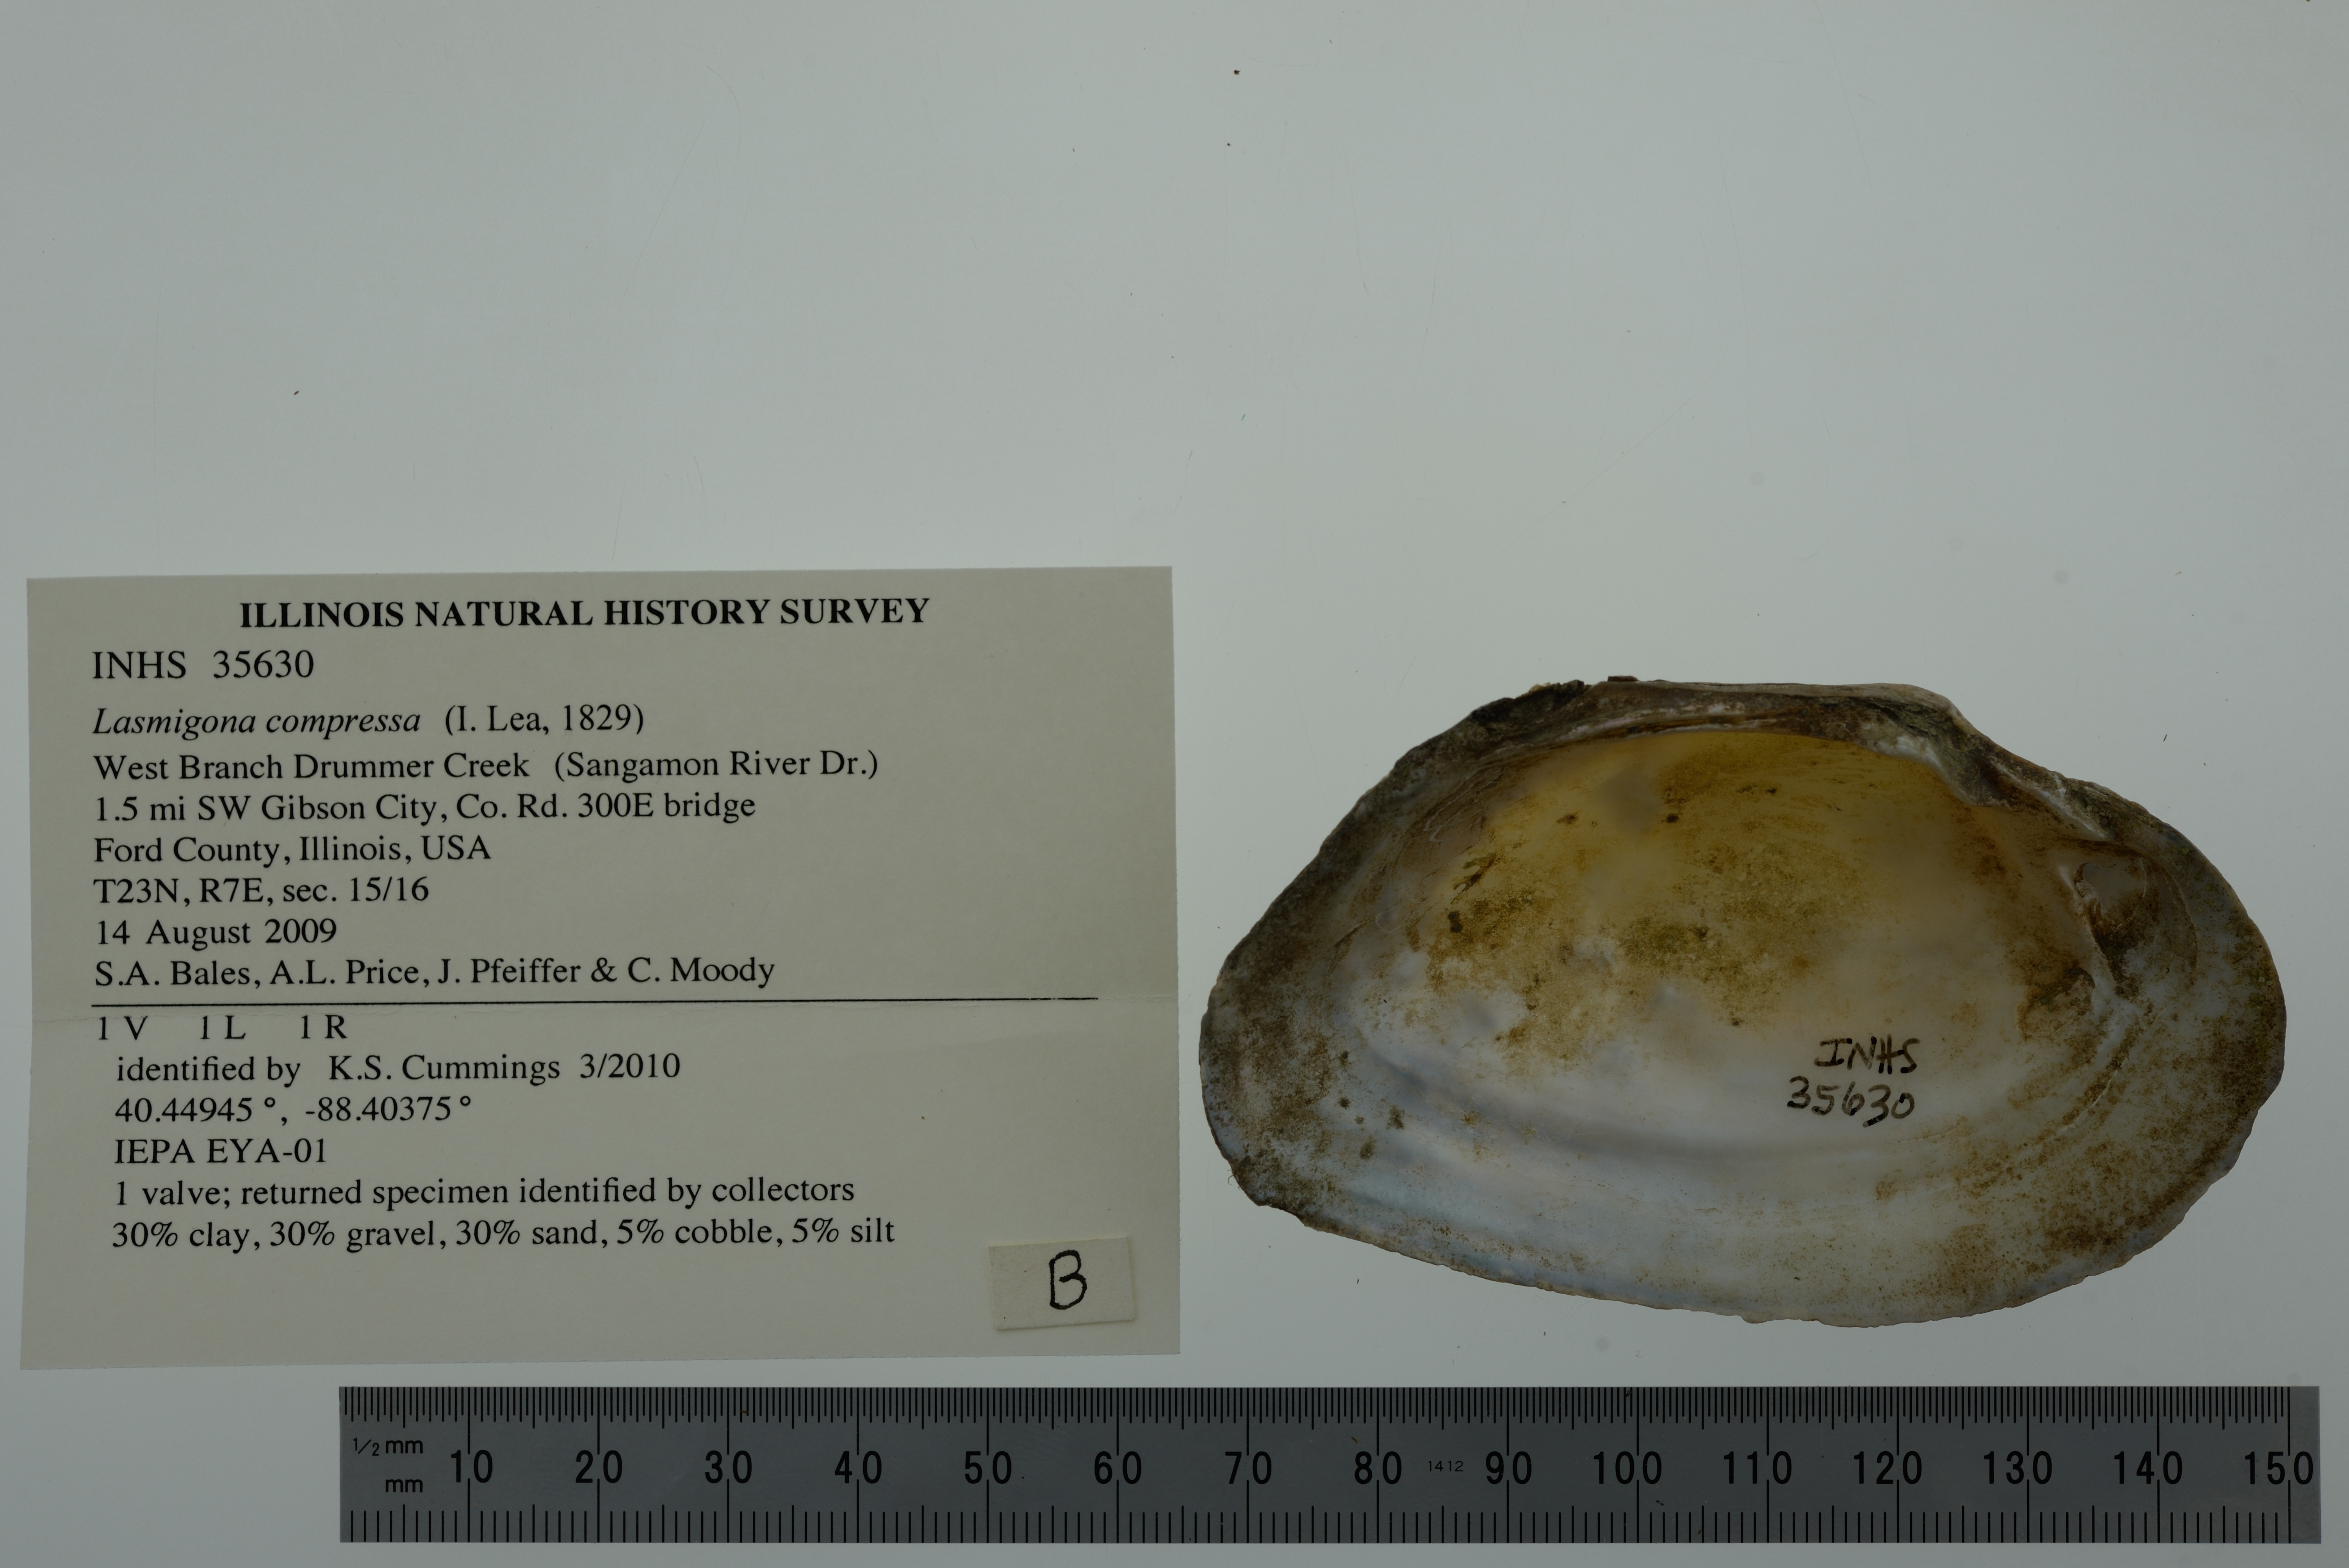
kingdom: Animalia
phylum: Mollusca
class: Bivalvia
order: Unionida
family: Unionidae
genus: Lasmigona
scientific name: Lasmigona compressa
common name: Creek heelsplitter
